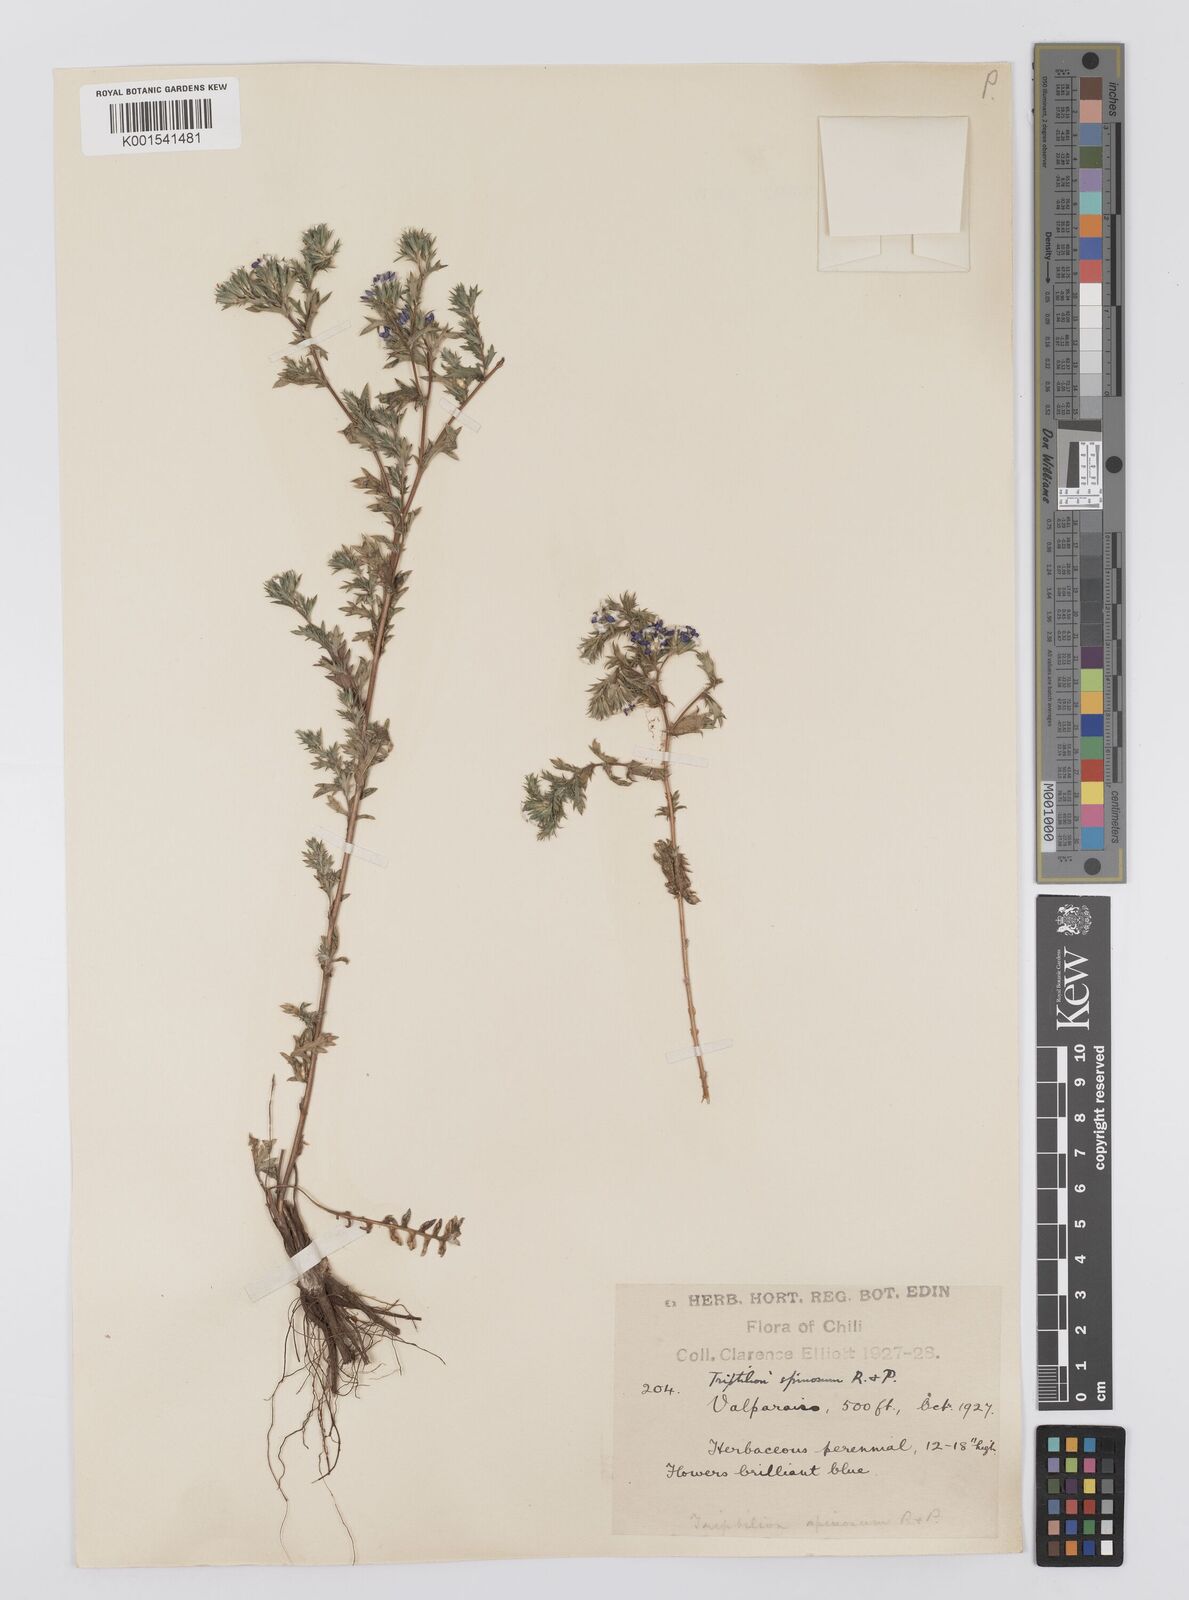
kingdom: Plantae
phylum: Tracheophyta
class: Magnoliopsida
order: Asterales
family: Asteraceae
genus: Triptilion
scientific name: Triptilion spinosum
